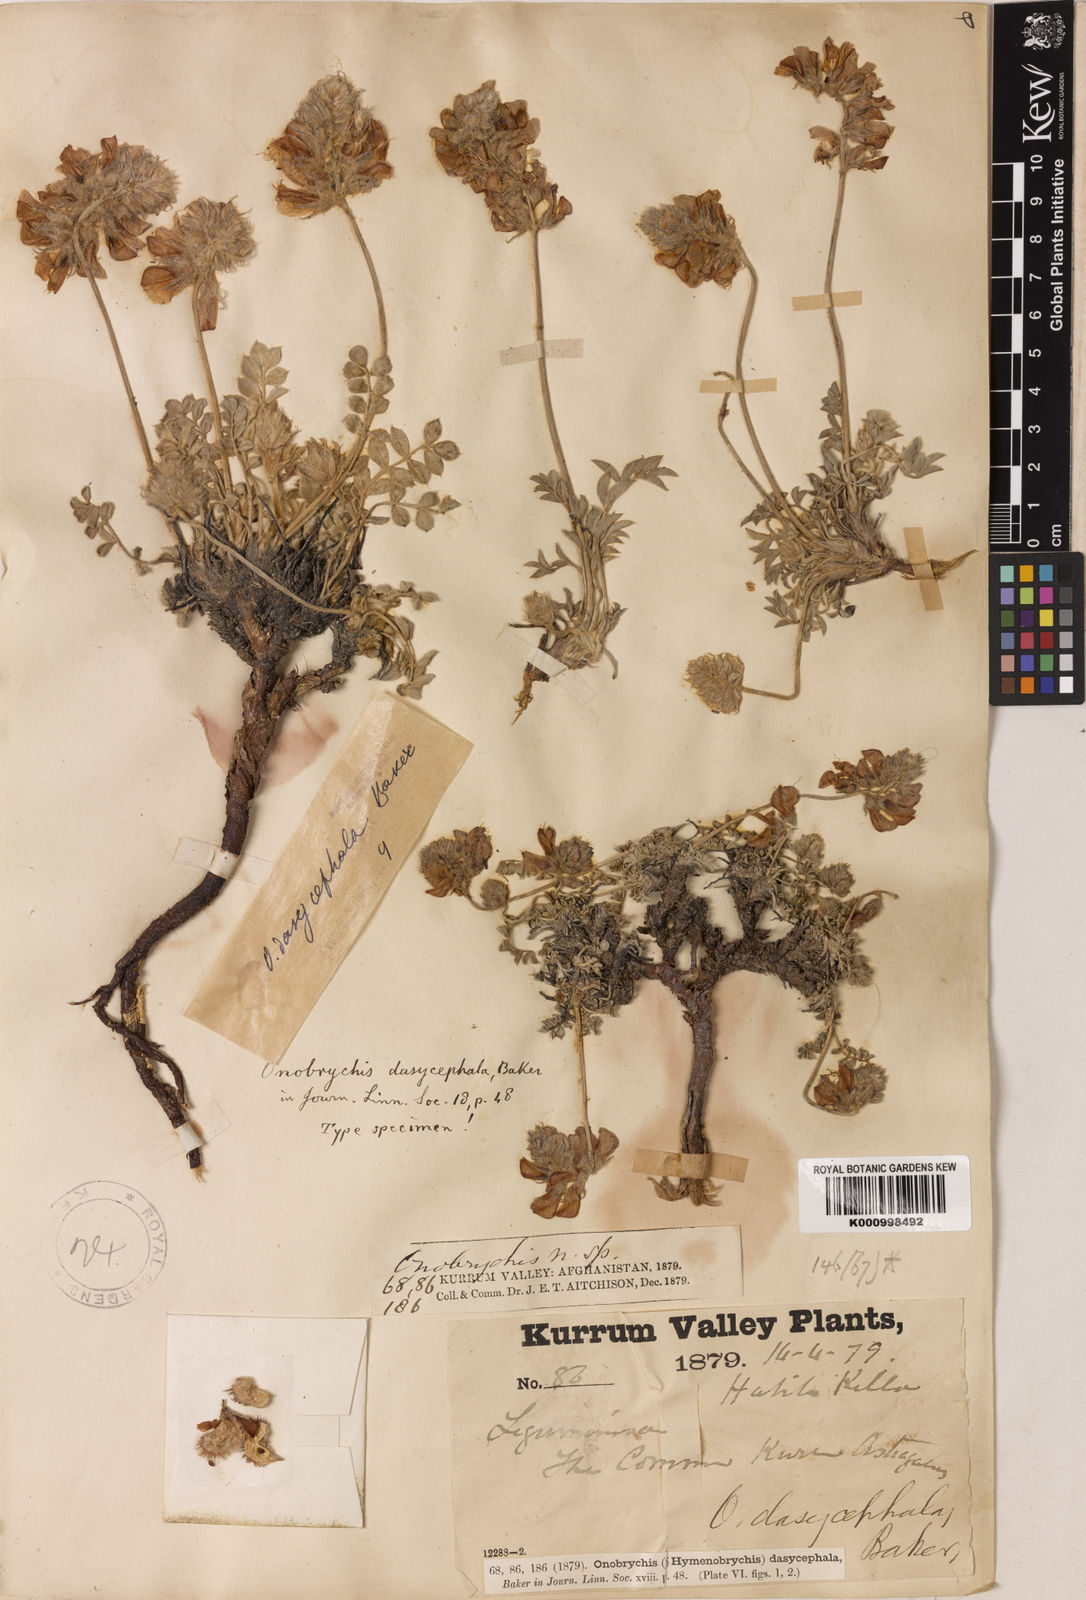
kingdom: Plantae
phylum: Tracheophyta
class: Magnoliopsida
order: Fabales
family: Fabaceae
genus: Onobrychis
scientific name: Onobrychis
